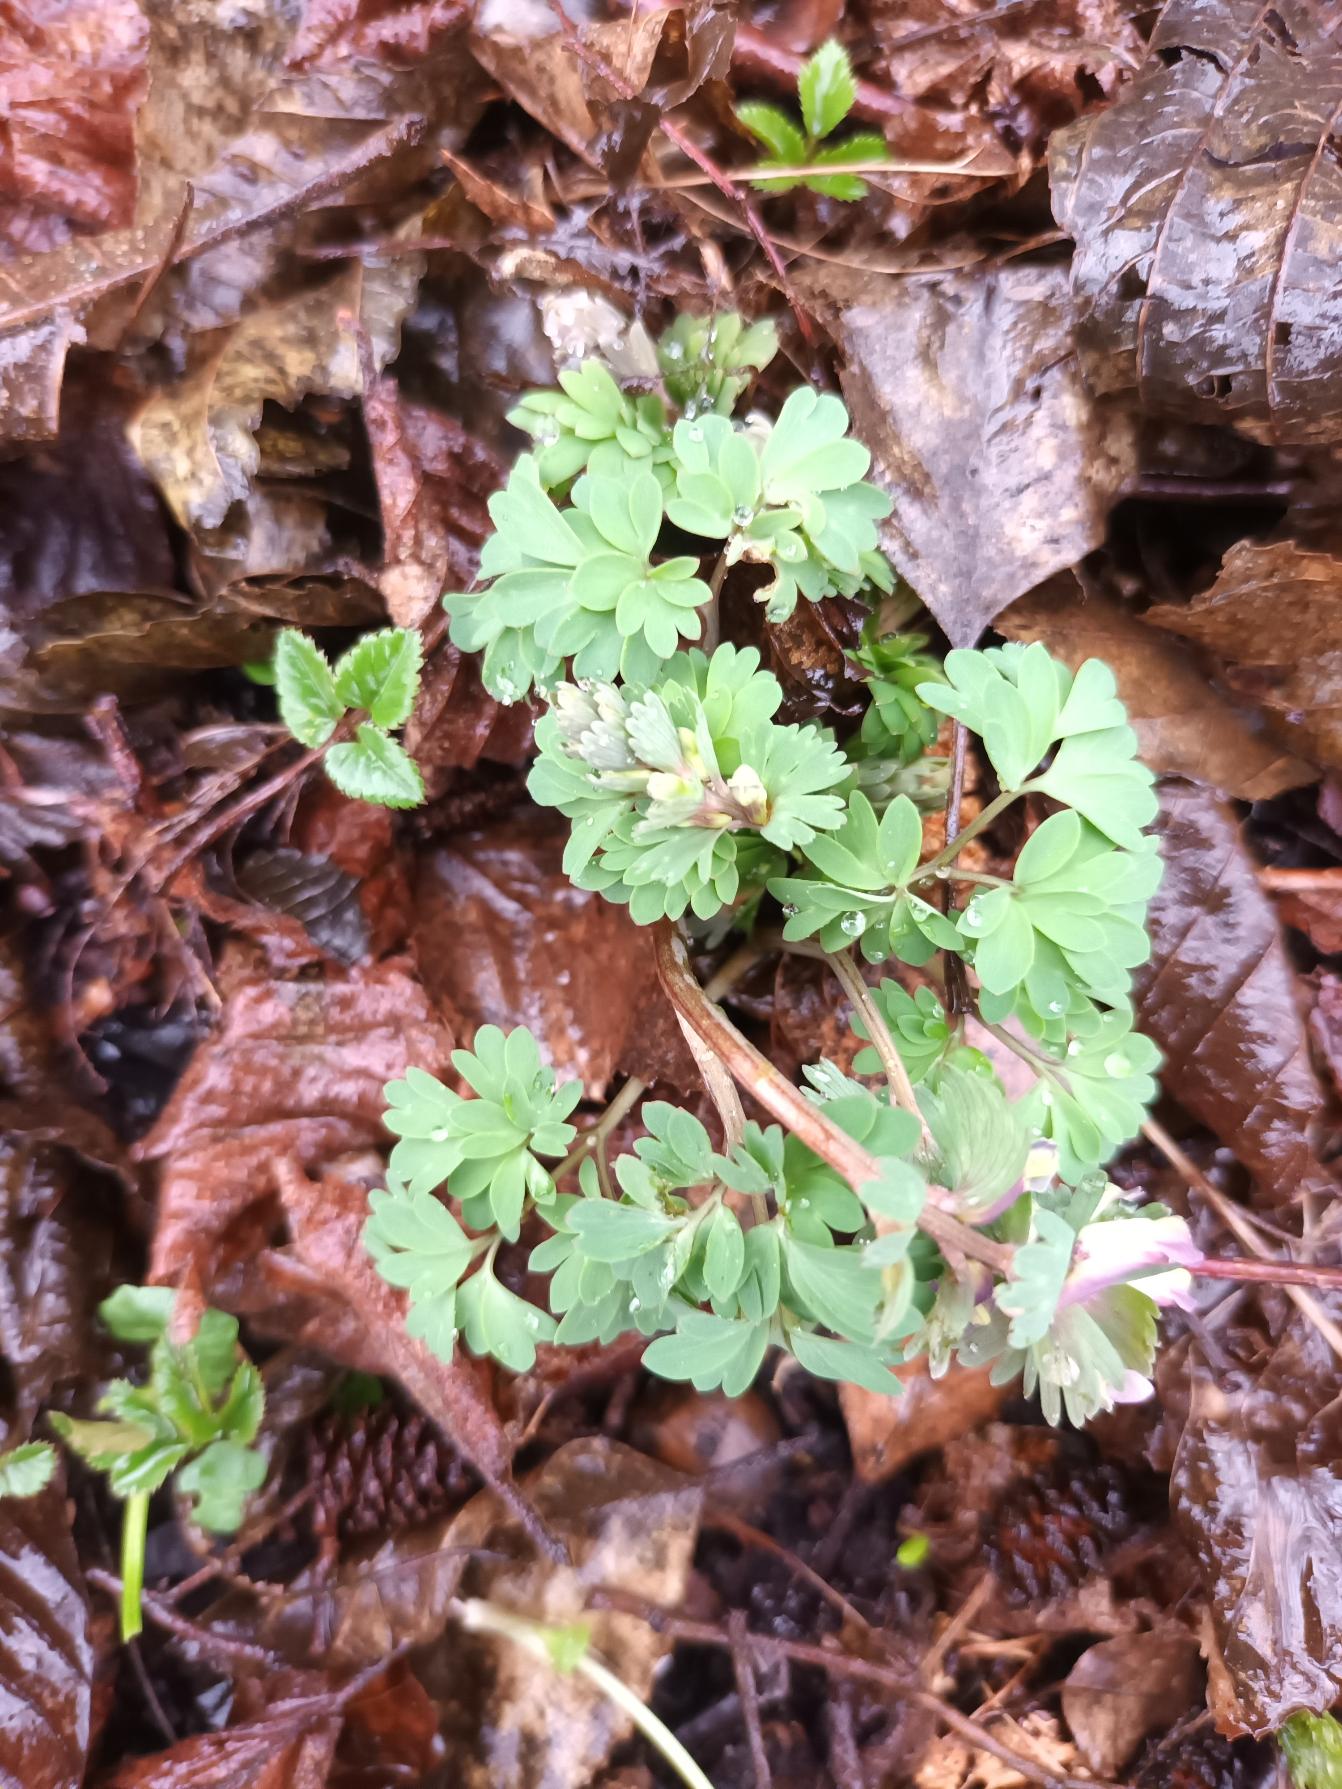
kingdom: Plantae
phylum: Tracheophyta
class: Magnoliopsida
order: Ranunculales
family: Papaveraceae
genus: Corydalis
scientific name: Corydalis solida
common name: Langstilket lærkespore
